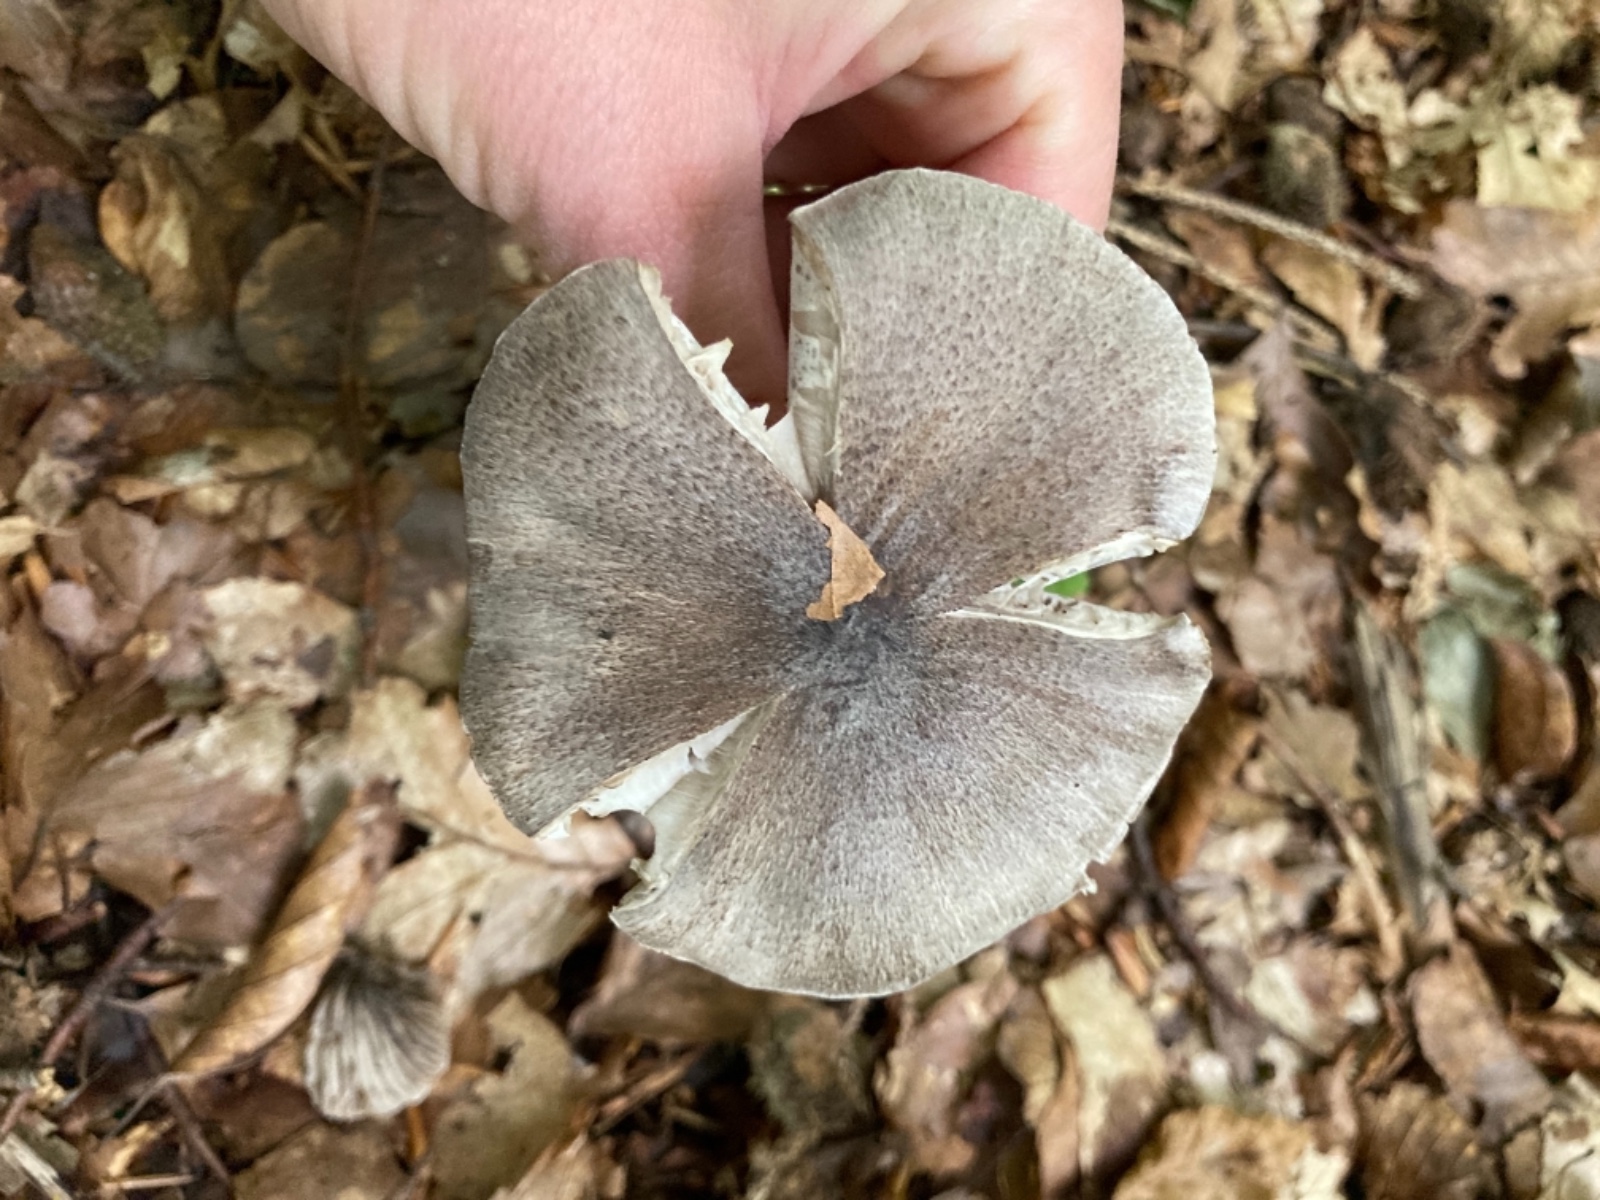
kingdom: Fungi
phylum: Basidiomycota
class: Agaricomycetes
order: Agaricales
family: Tricholomataceae
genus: Tricholoma
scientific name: Tricholoma sciodes
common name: stribet ridderhat
